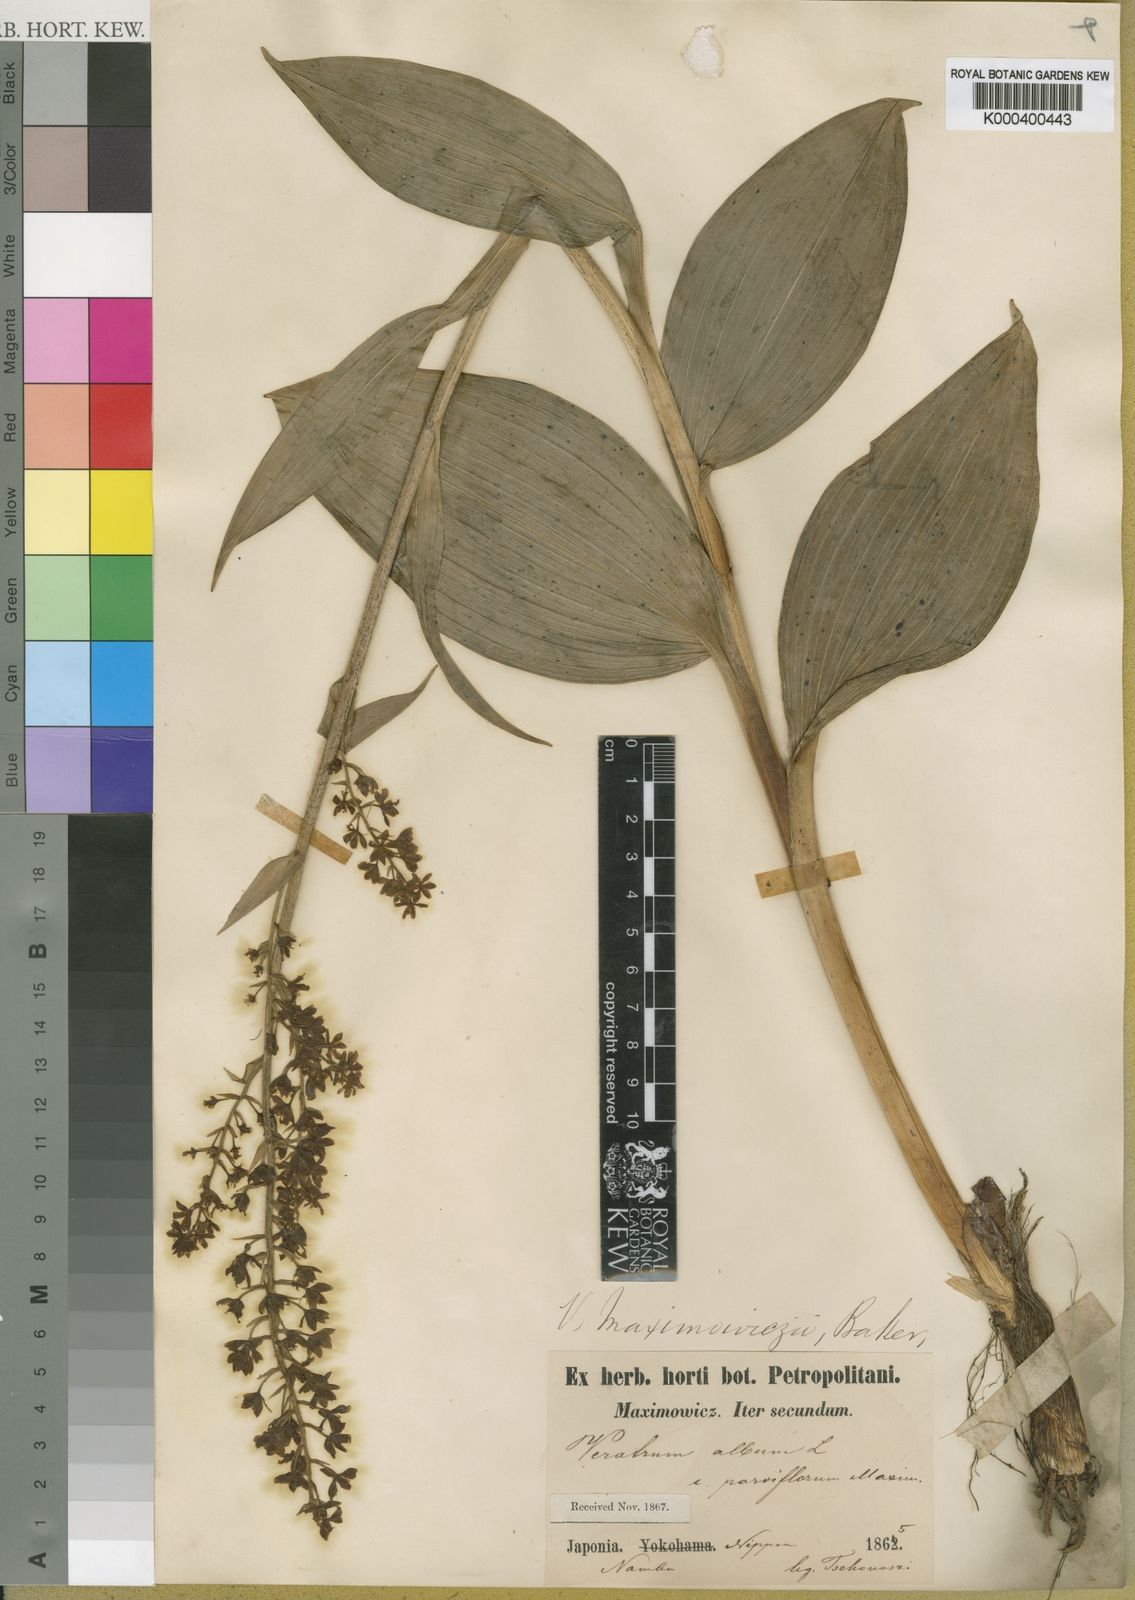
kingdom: Plantae
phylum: Tracheophyta
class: Liliopsida
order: Liliales
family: Melanthiaceae
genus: Veratrum
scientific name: Veratrum maackii
